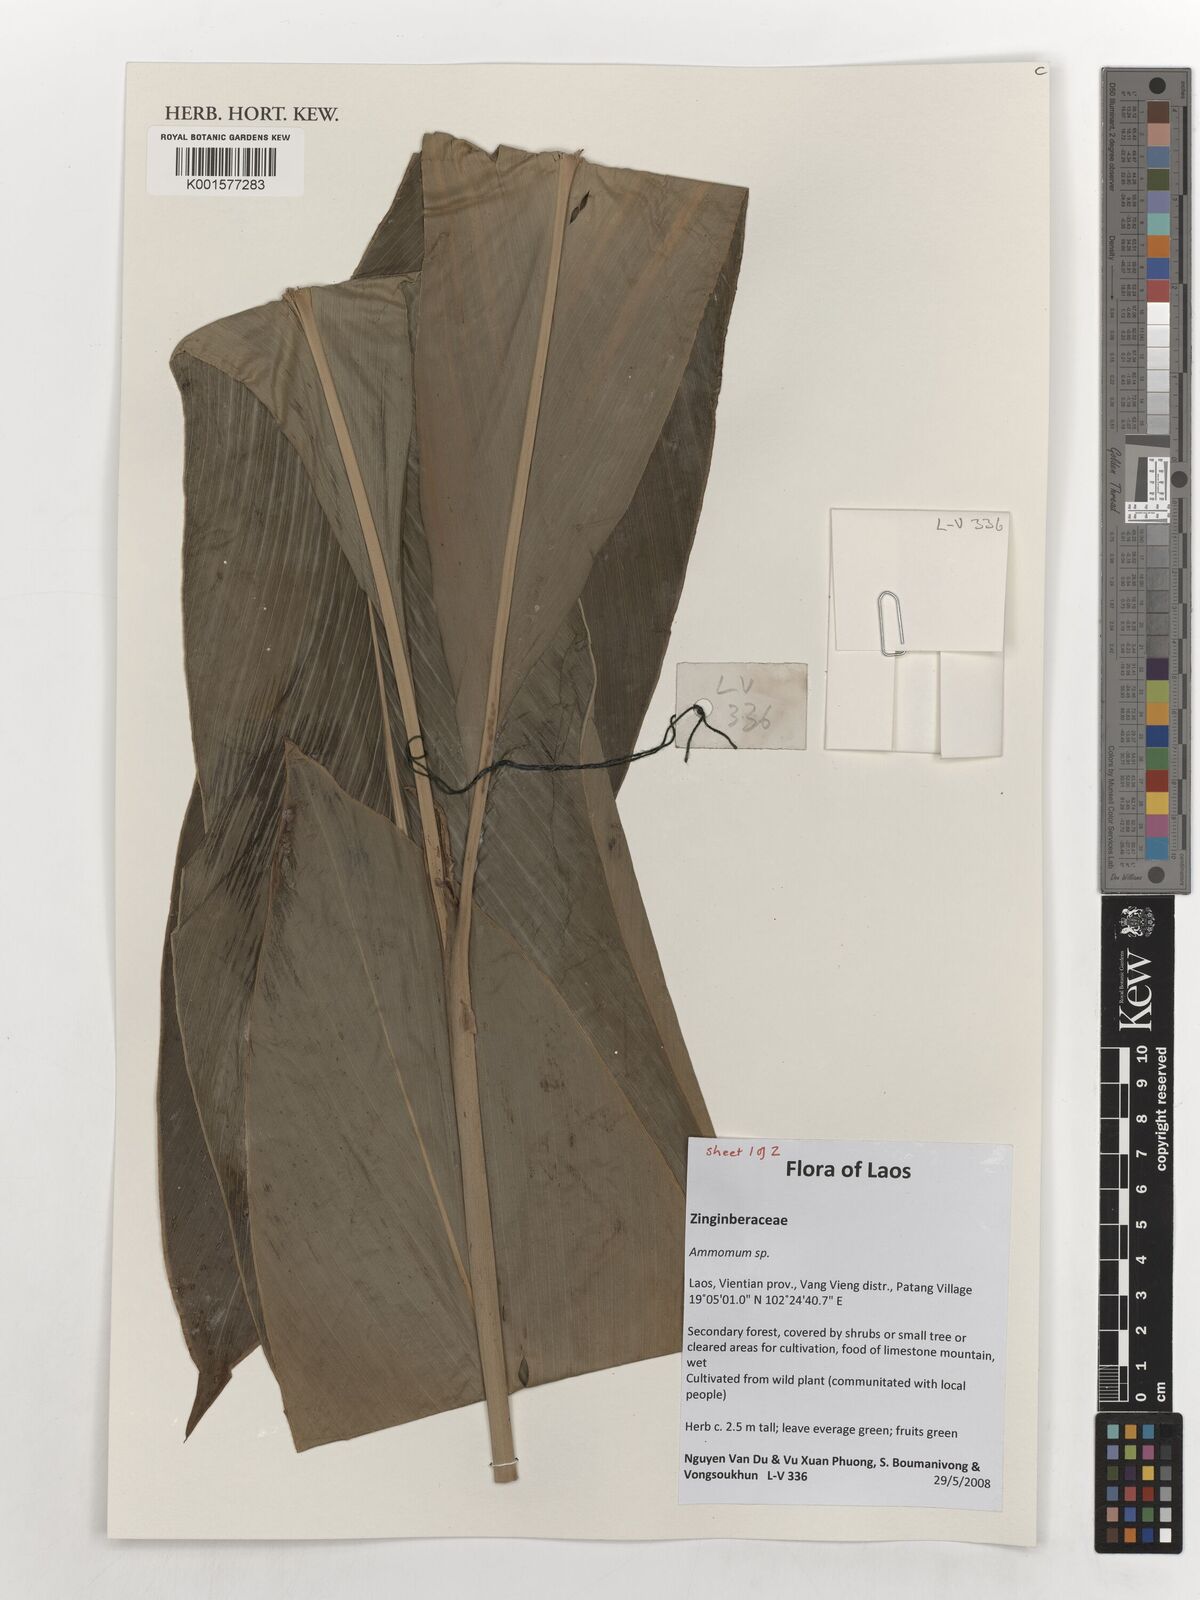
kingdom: Plantae
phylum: Tracheophyta
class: Liliopsida
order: Zingiberales
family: Zingiberaceae
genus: Amomum
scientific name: Amomum
